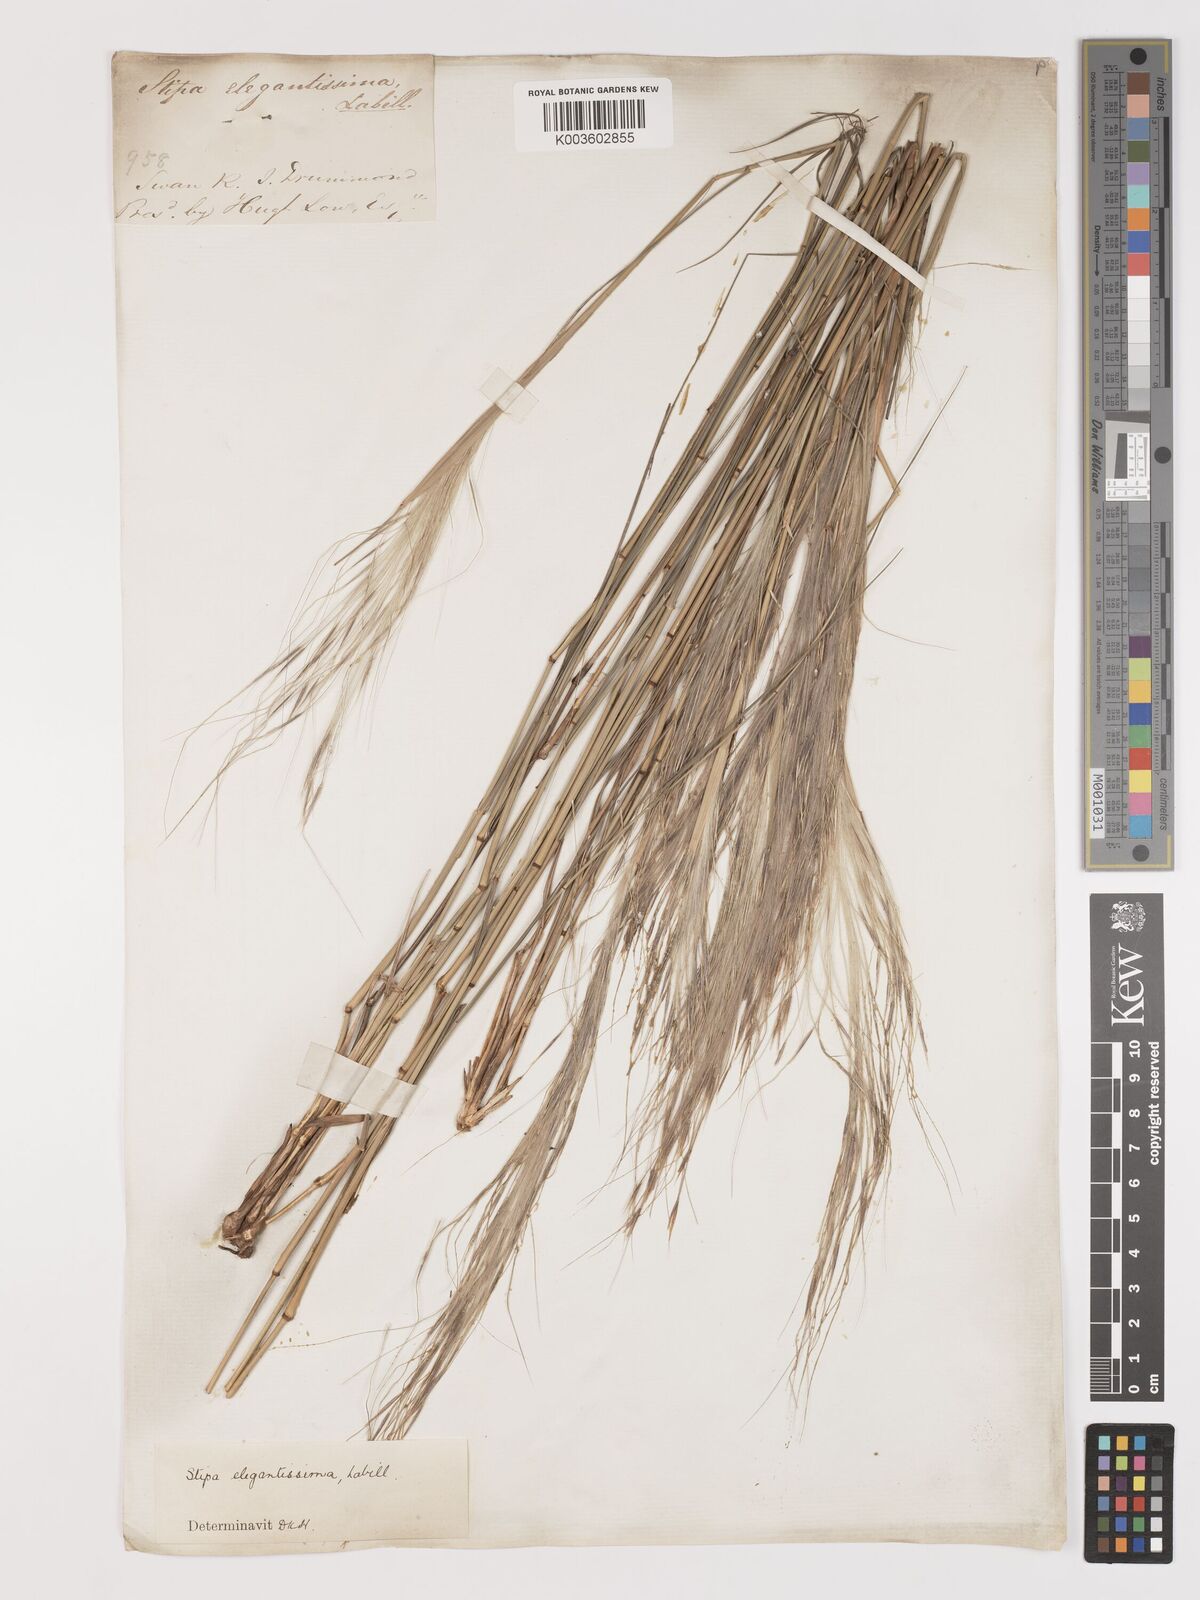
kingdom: Plantae
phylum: Tracheophyta
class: Liliopsida
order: Poales
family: Poaceae
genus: Austrostipa
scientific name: Austrostipa elegantissima
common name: Feather spear grass
